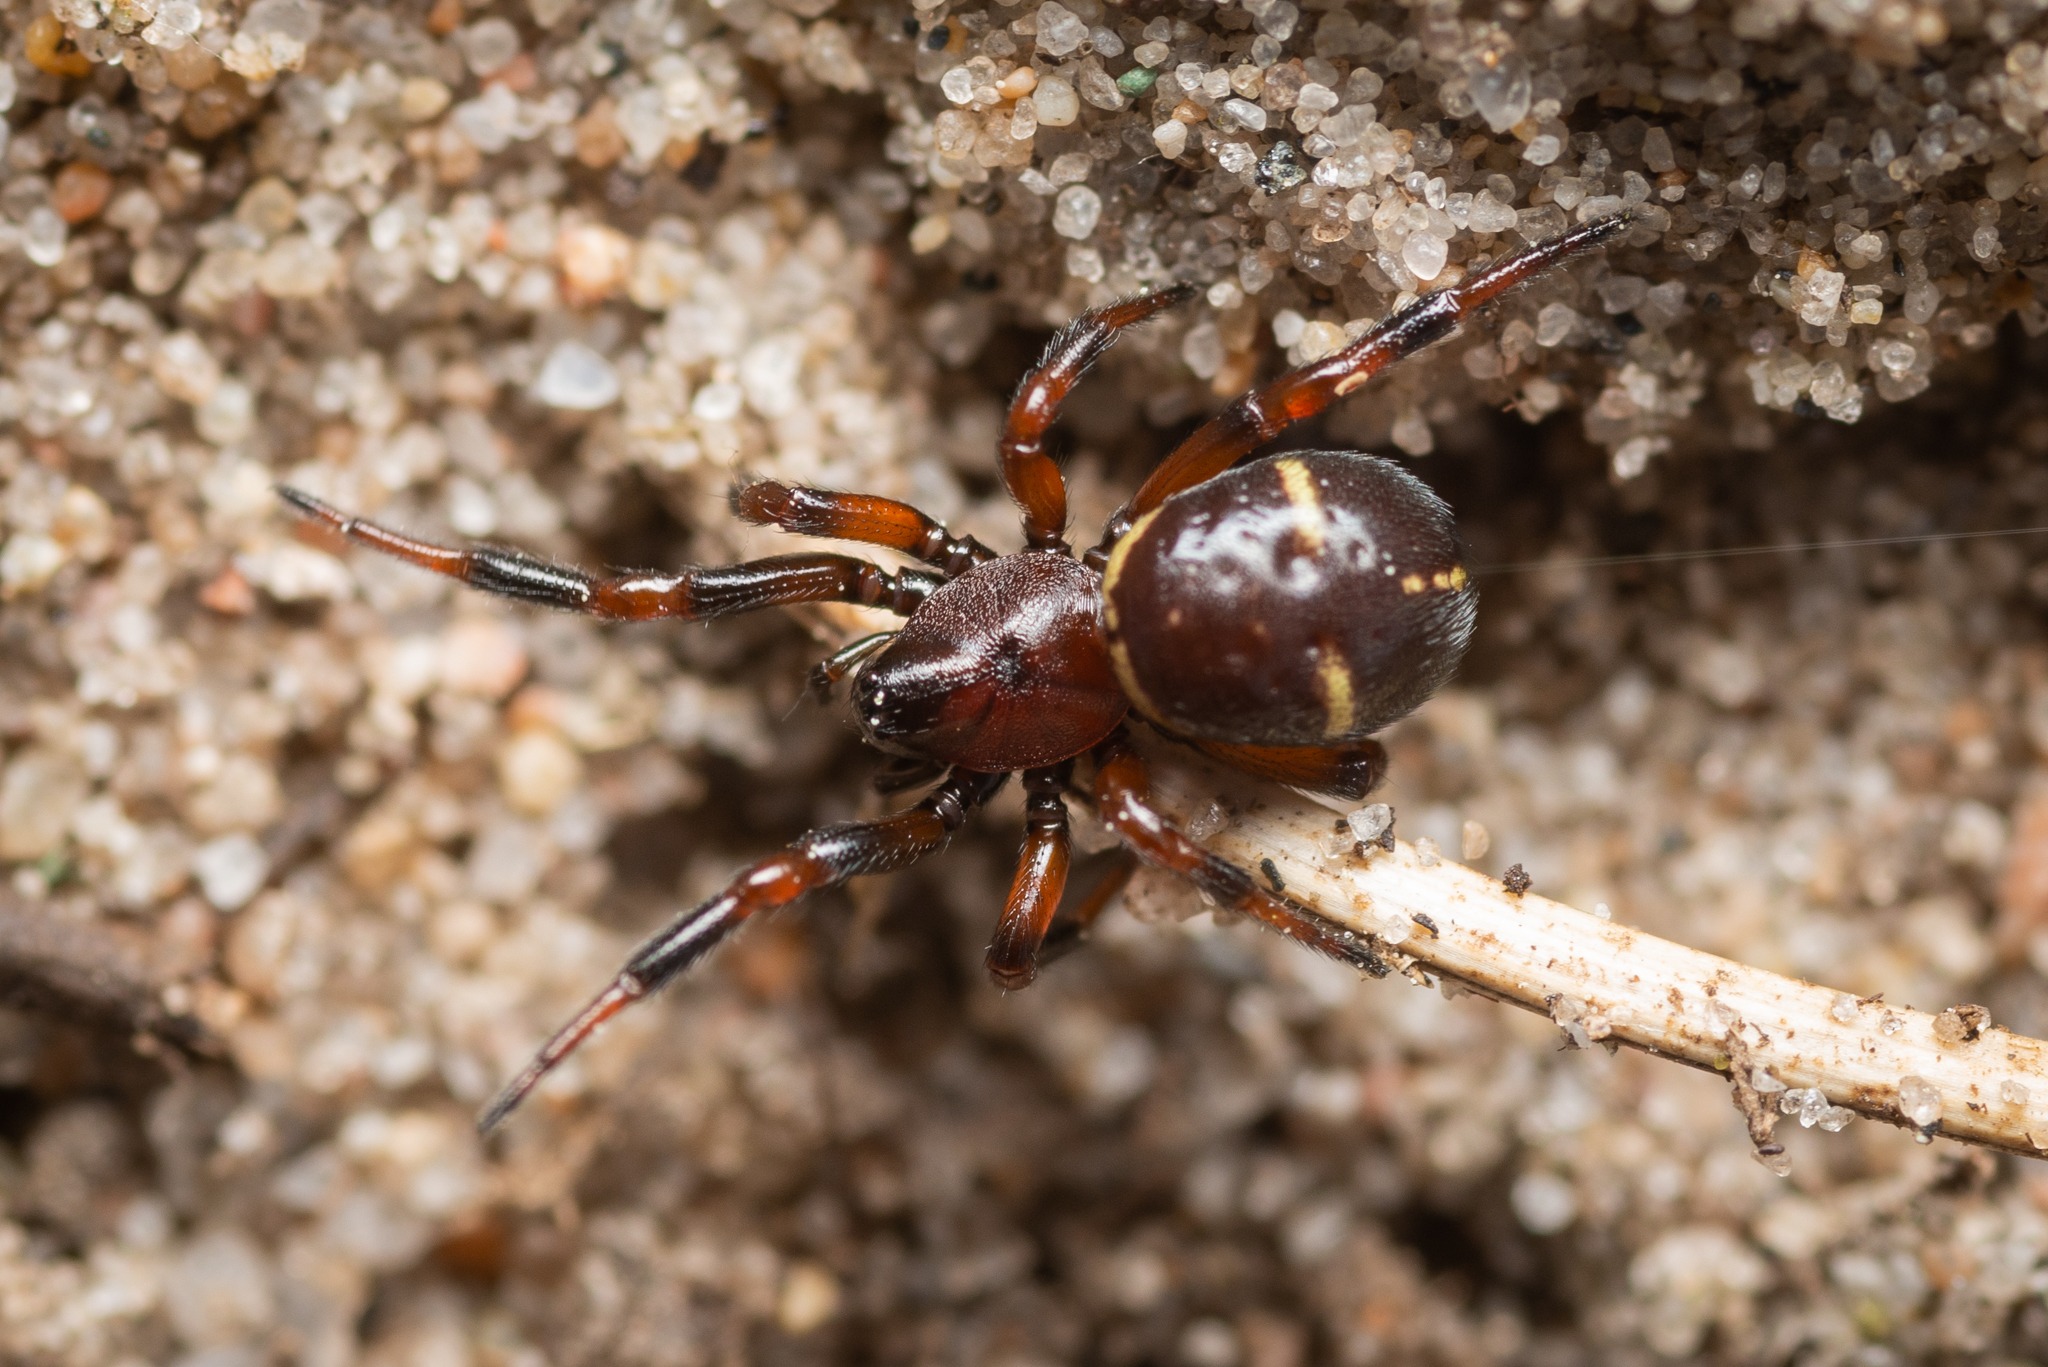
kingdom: Animalia
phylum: Arthropoda
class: Arachnida
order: Araneae
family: Theridiidae
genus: Asagena
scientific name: Asagena phalerata
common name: Smuk voksedderkop
